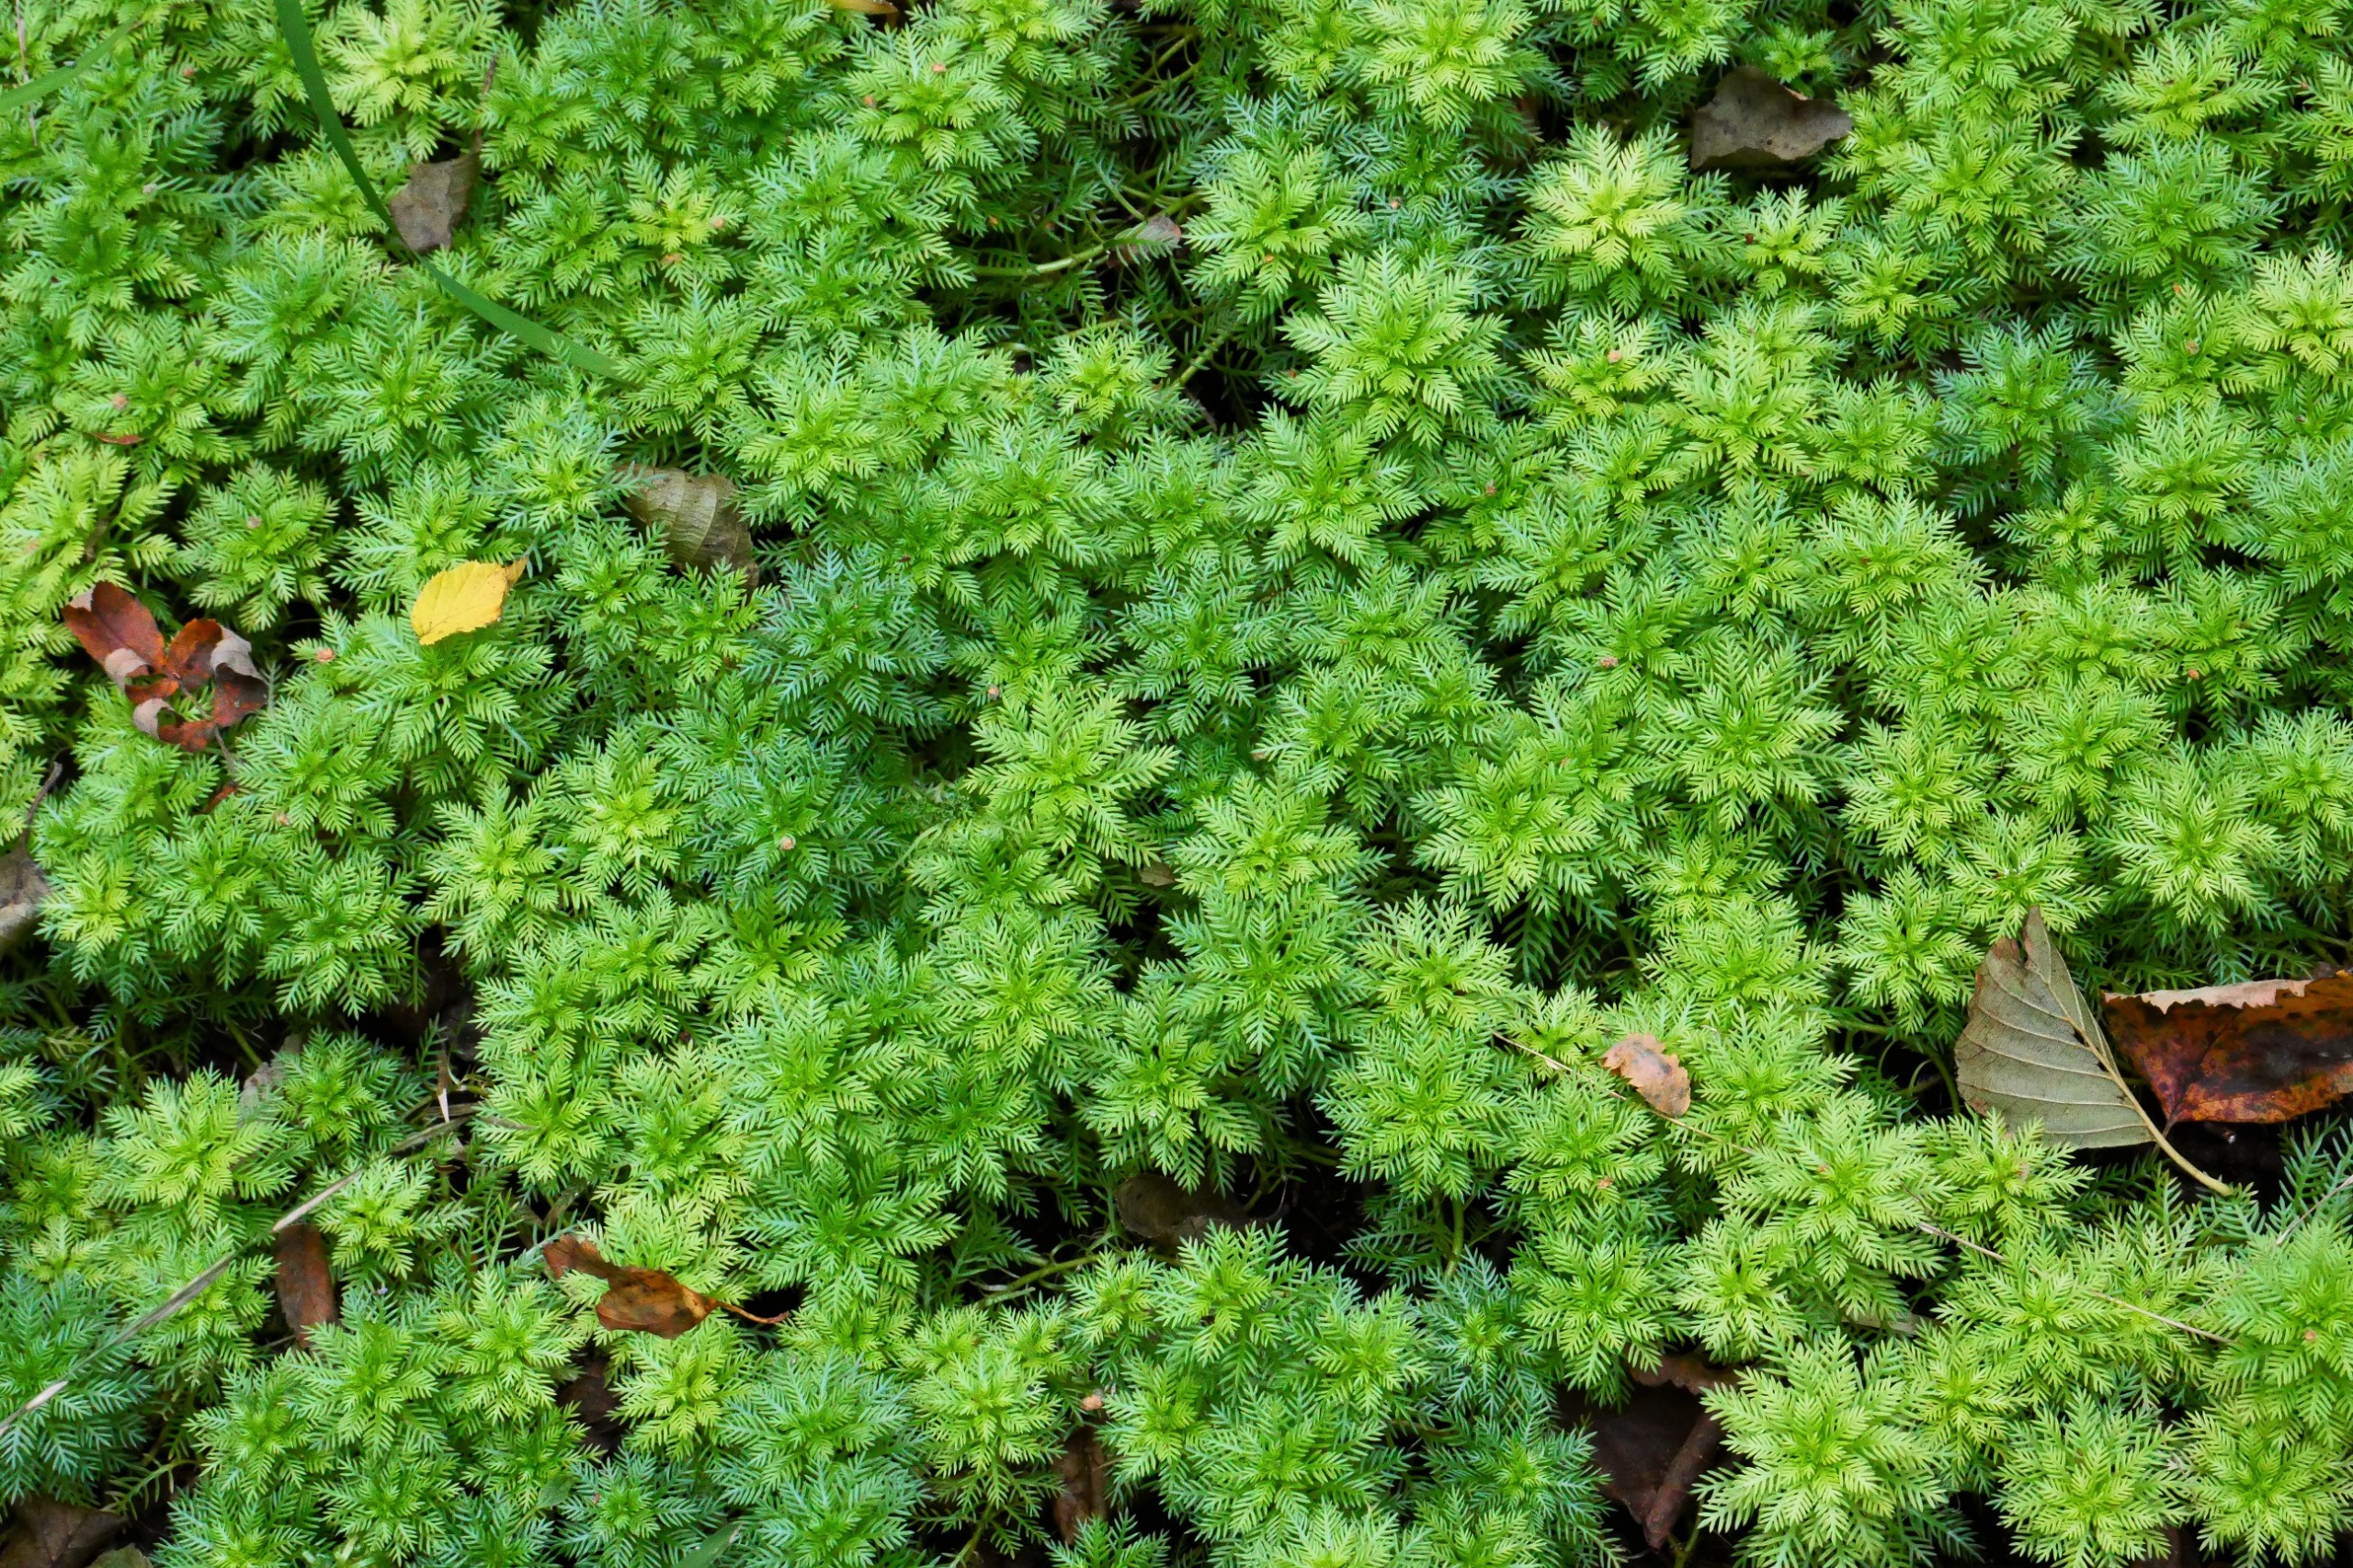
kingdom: Plantae
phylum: Tracheophyta
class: Magnoliopsida
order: Ericales
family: Primulaceae
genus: Hottonia
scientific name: Hottonia palustris
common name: Vandrøllike
